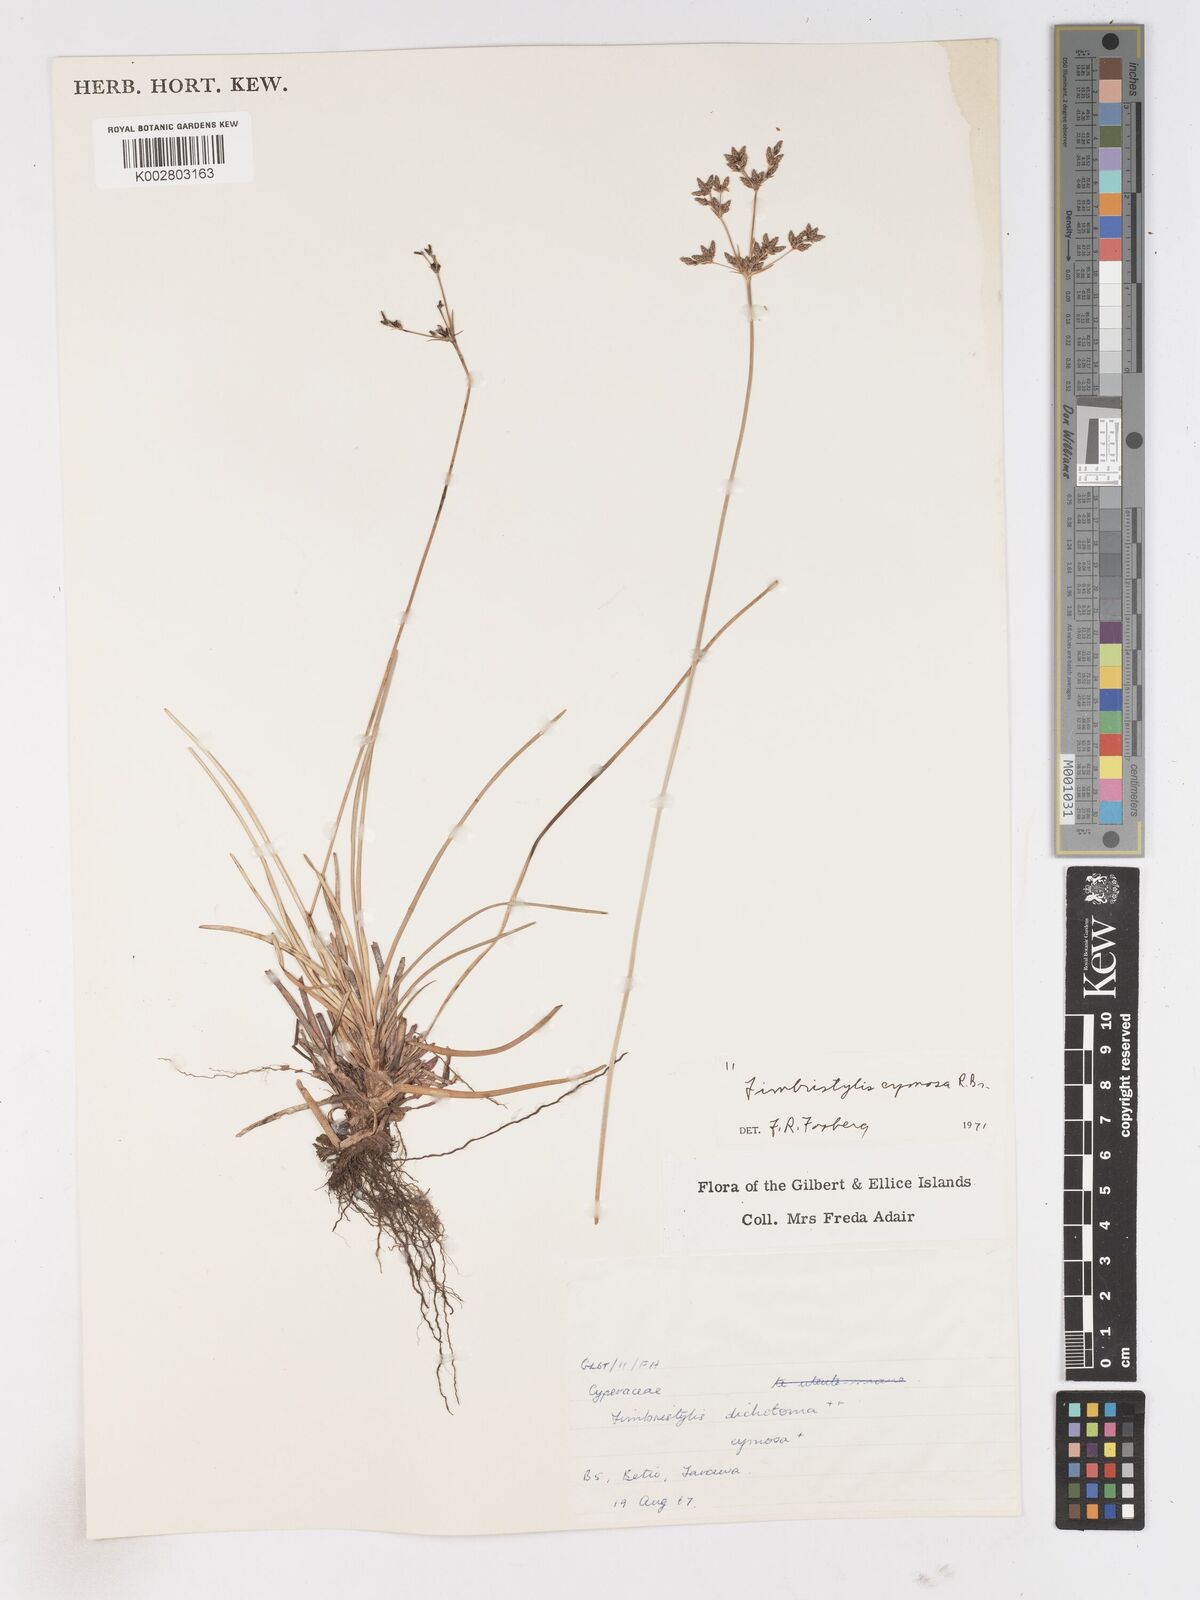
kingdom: Plantae
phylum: Tracheophyta
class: Liliopsida
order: Poales
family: Cyperaceae
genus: Fimbristylis
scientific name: Fimbristylis cymosa
